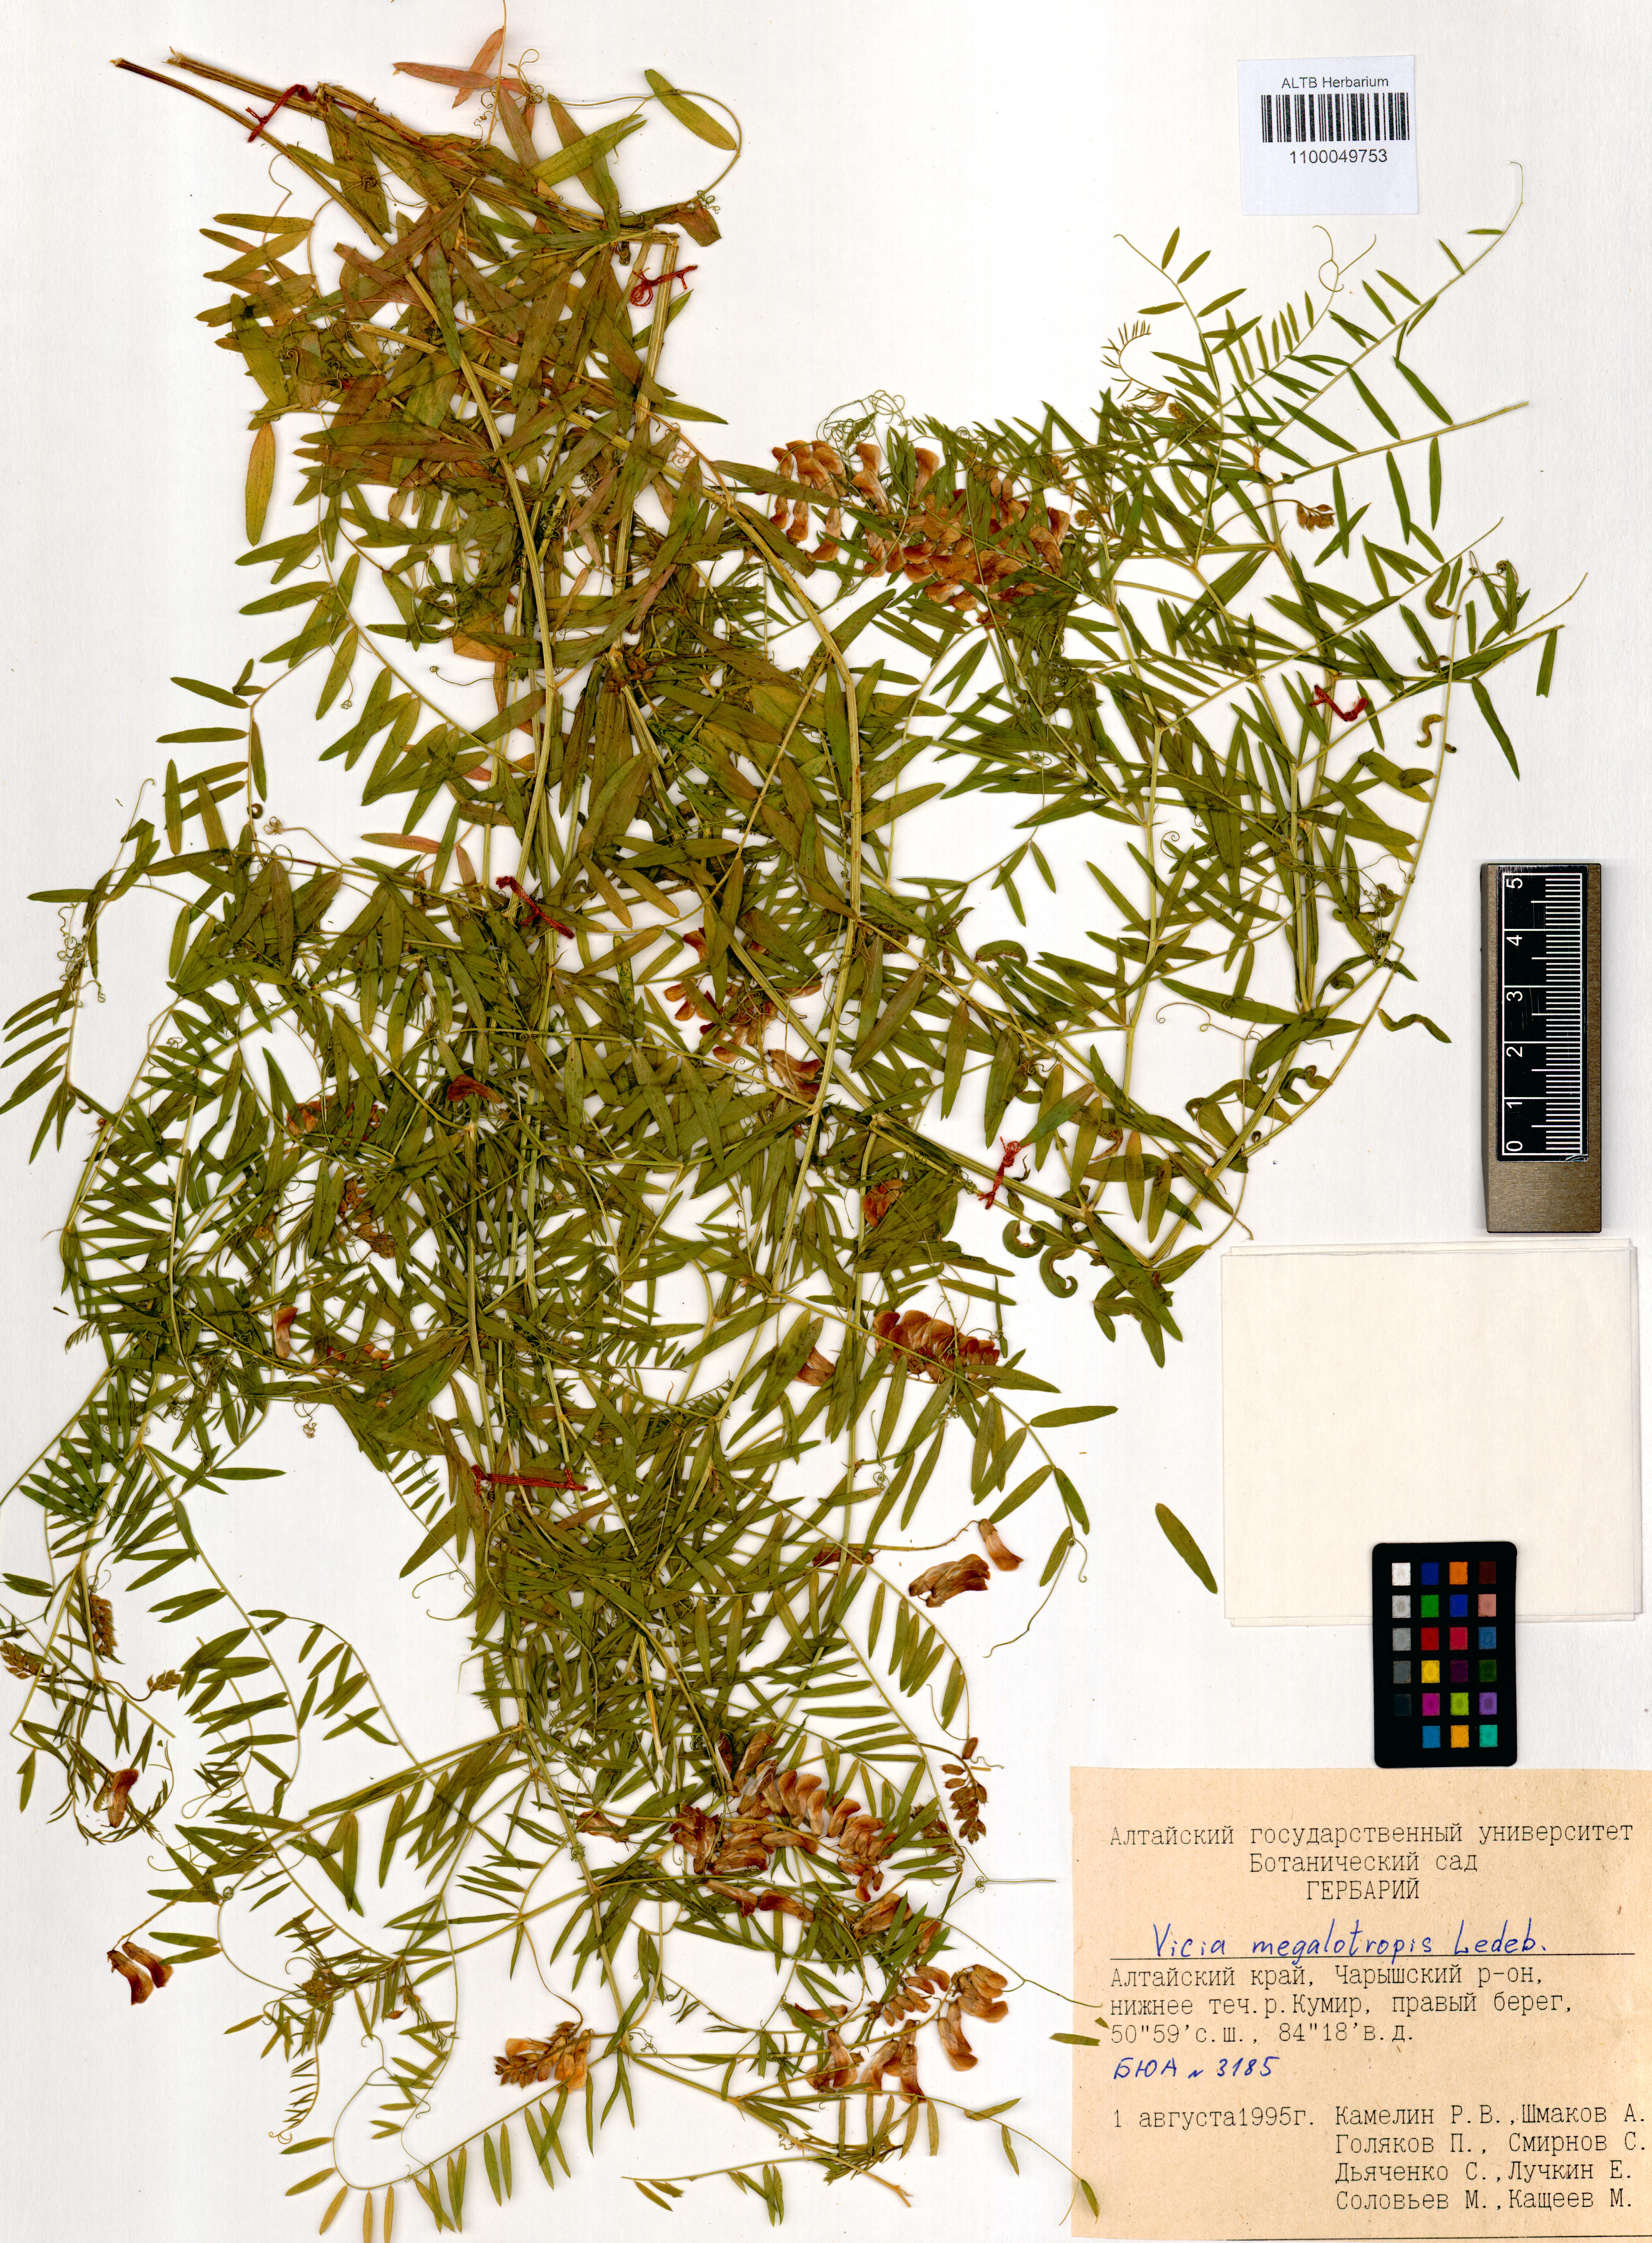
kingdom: Plantae
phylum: Tracheophyta
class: Magnoliopsida
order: Fabales
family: Fabaceae
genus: Vicia
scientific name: Vicia megalotropis
